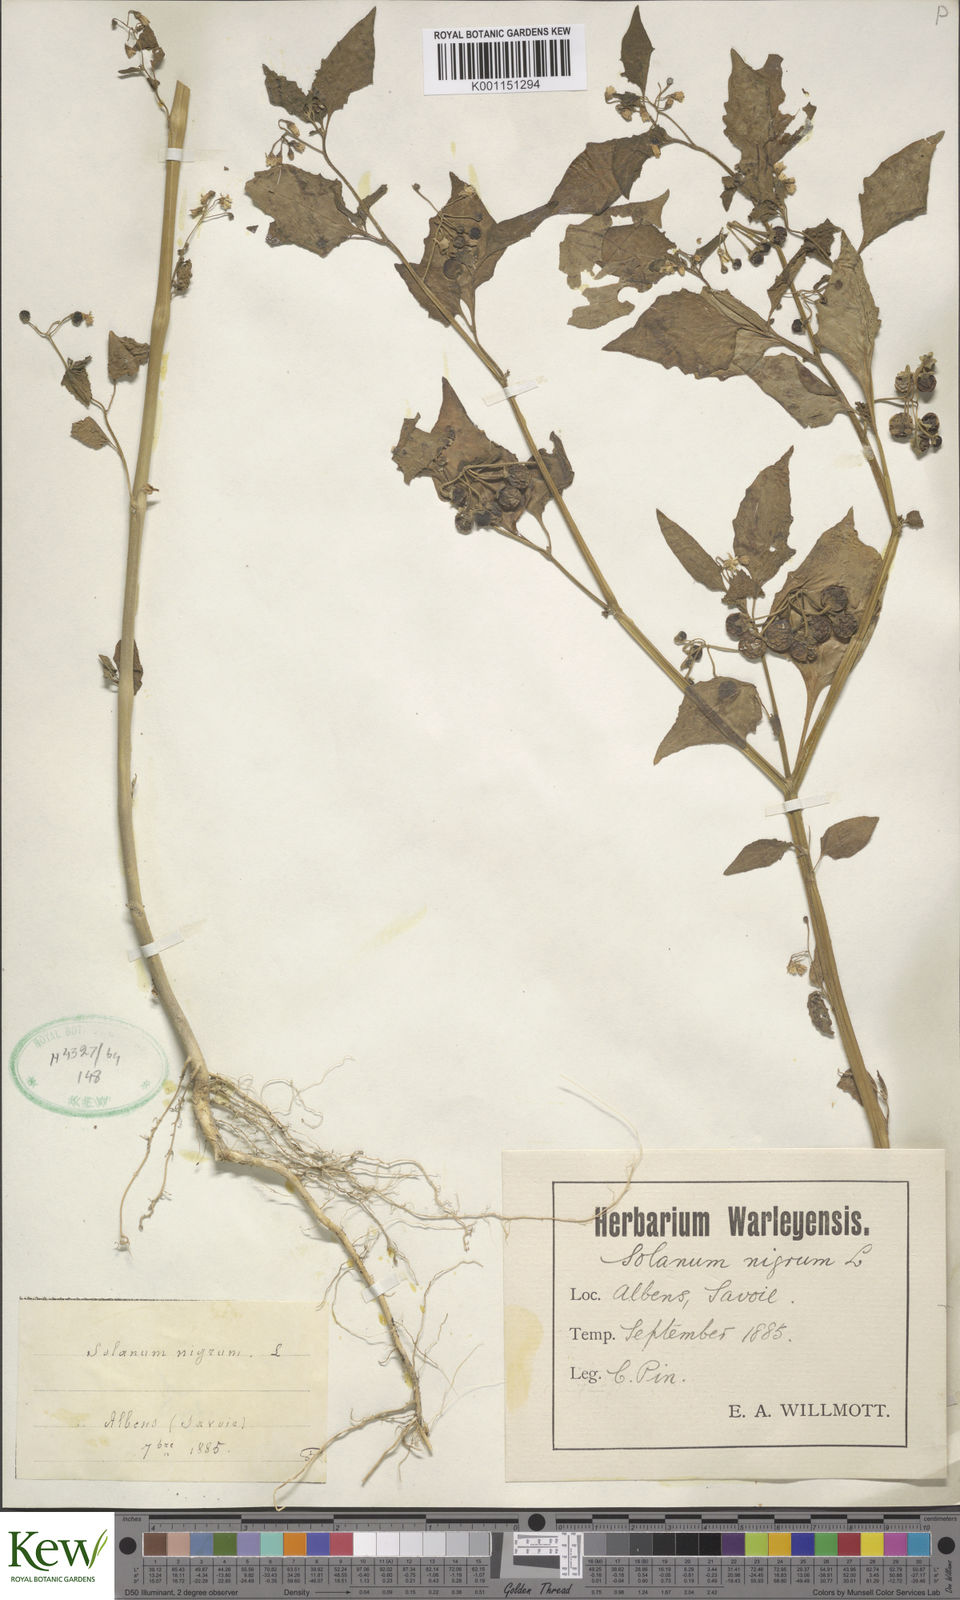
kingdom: Plantae
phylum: Tracheophyta
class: Magnoliopsida
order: Solanales
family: Solanaceae
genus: Solanum
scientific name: Solanum nigrum
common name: Black nightshade
